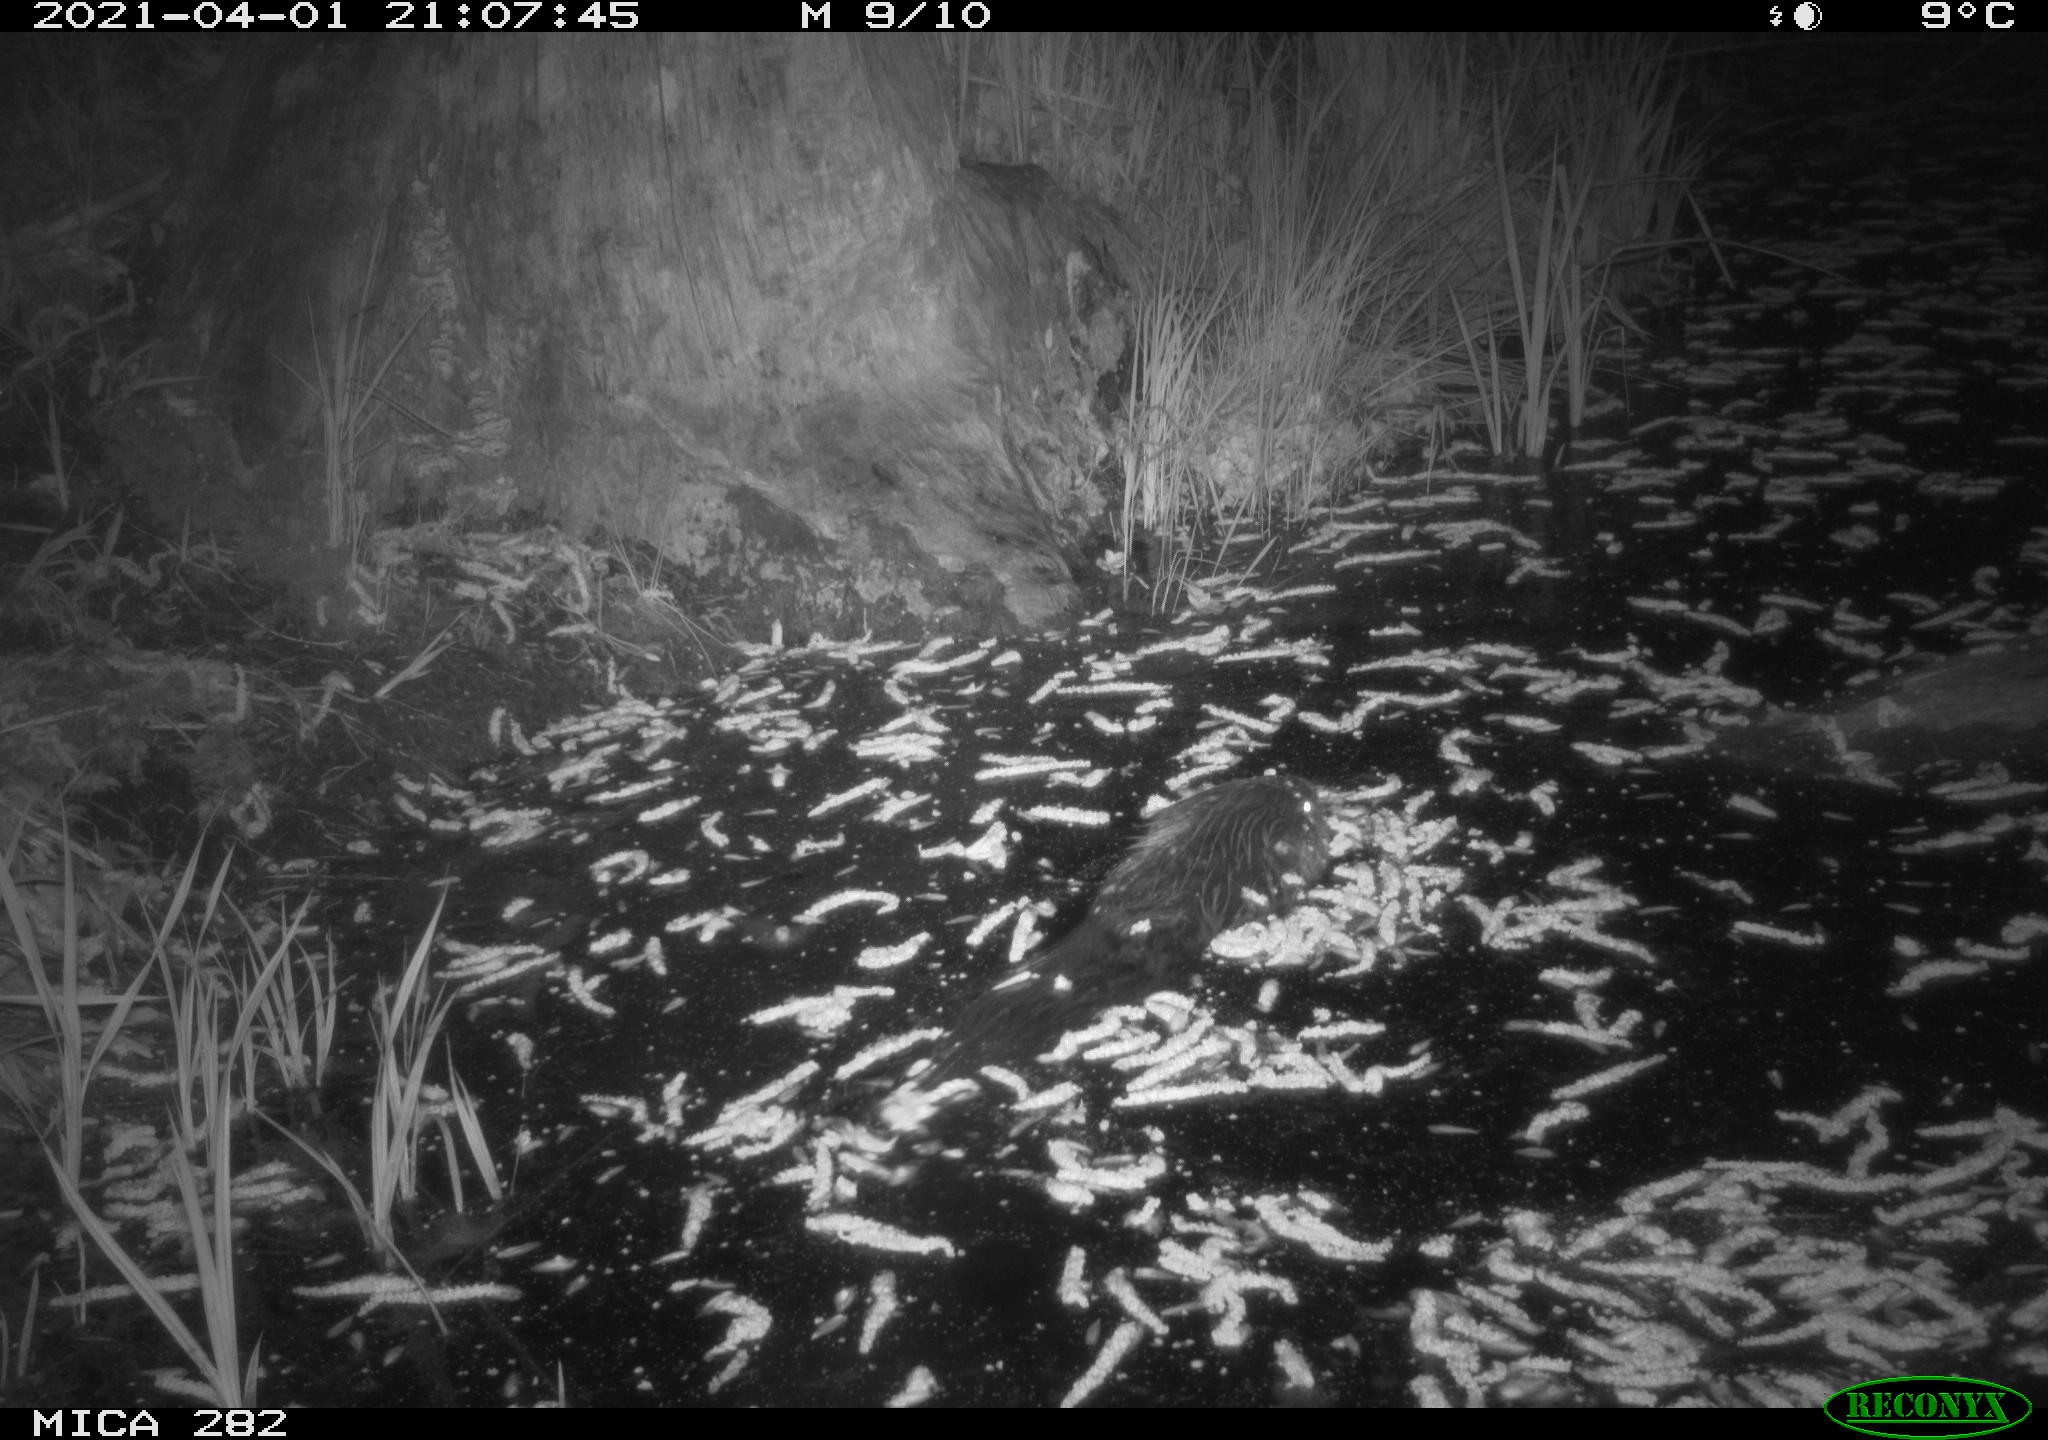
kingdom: Animalia
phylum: Chordata
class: Mammalia
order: Rodentia
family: Castoridae
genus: Castor
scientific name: Castor fiber
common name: Eurasian beaver
